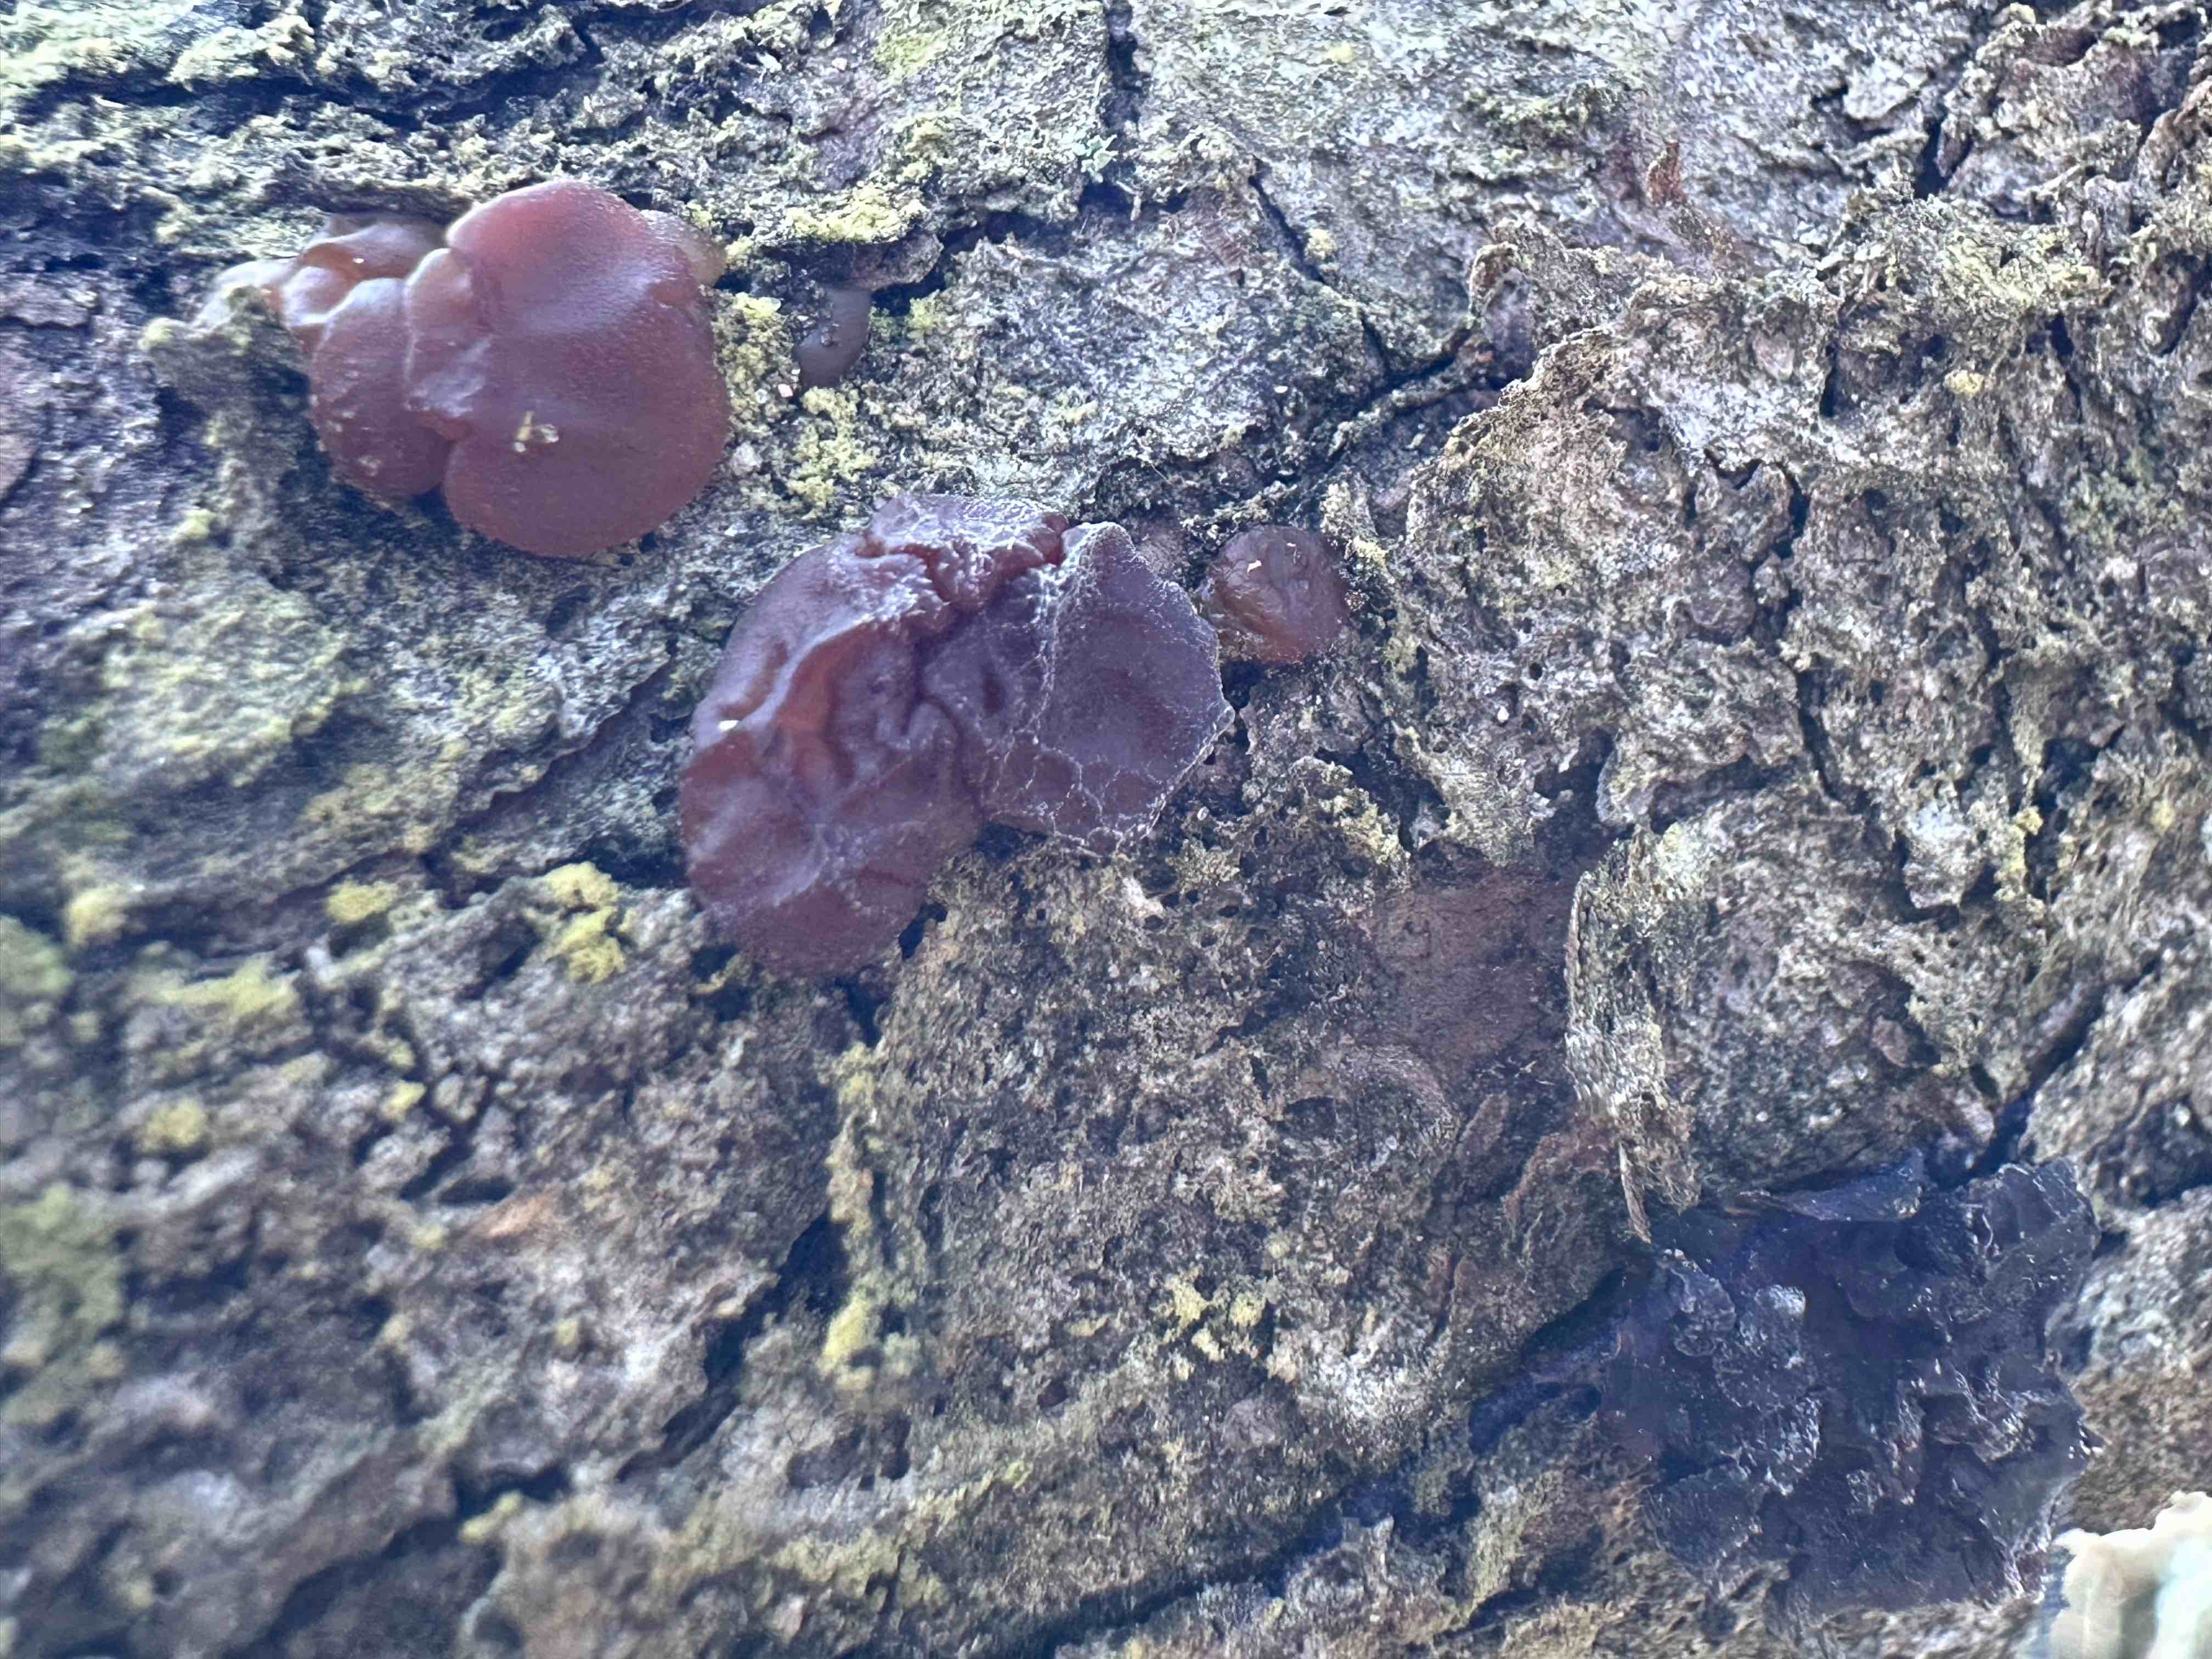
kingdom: Fungi
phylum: Basidiomycota
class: Agaricomycetes
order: Auriculariales
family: Auriculariaceae
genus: Exidia
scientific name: Exidia saccharina
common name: kandis-bævretop
